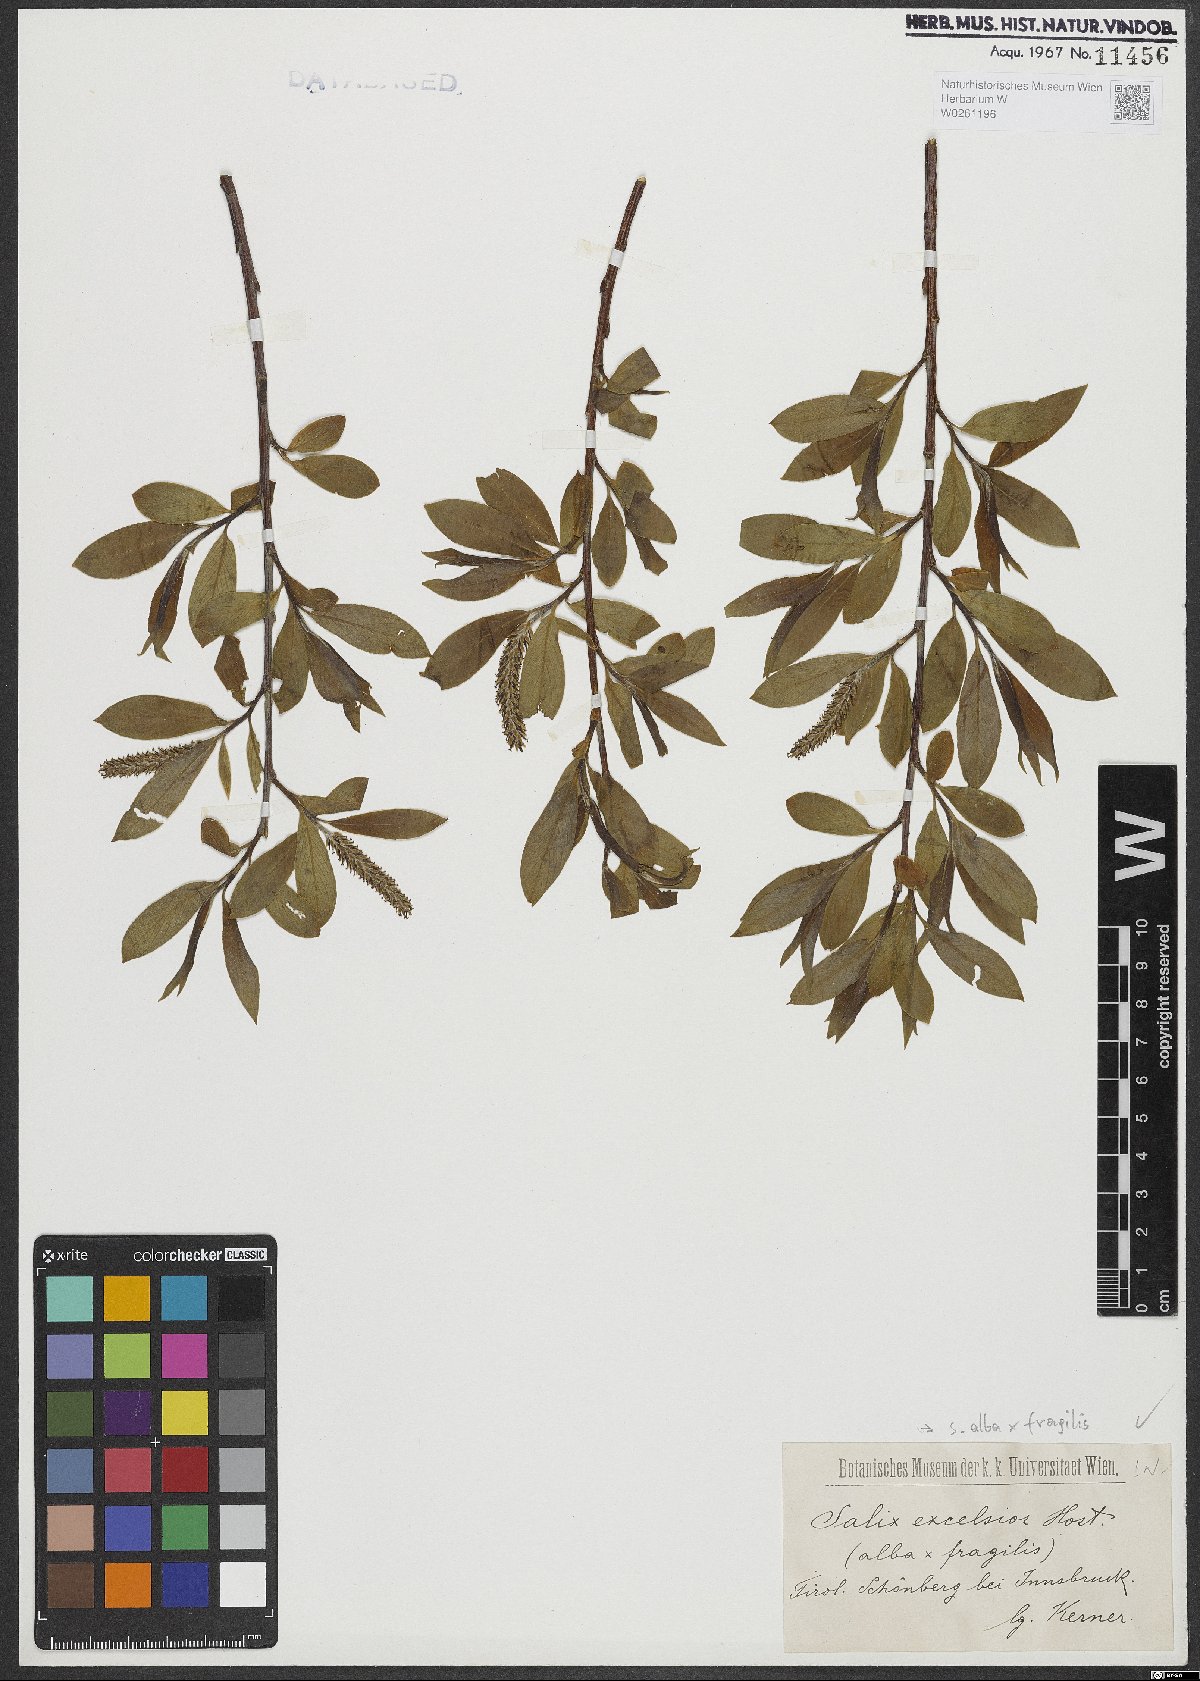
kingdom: Plantae
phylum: Tracheophyta
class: Magnoliopsida
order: Malpighiales
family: Salicaceae
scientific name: Salicaceae
